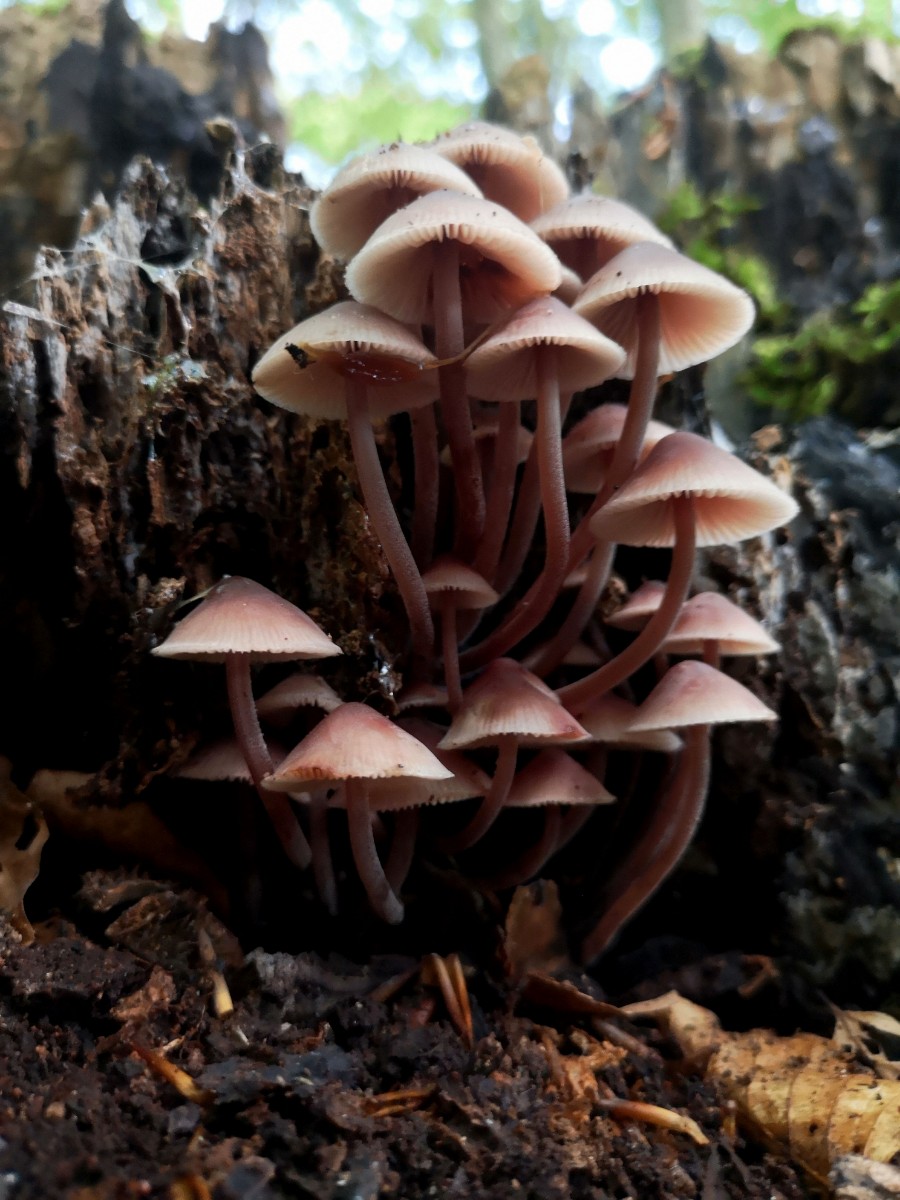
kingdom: Fungi
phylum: Basidiomycota
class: Agaricomycetes
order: Agaricales
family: Mycenaceae
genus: Mycena
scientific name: Mycena haematopus
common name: blødende huesvamp
